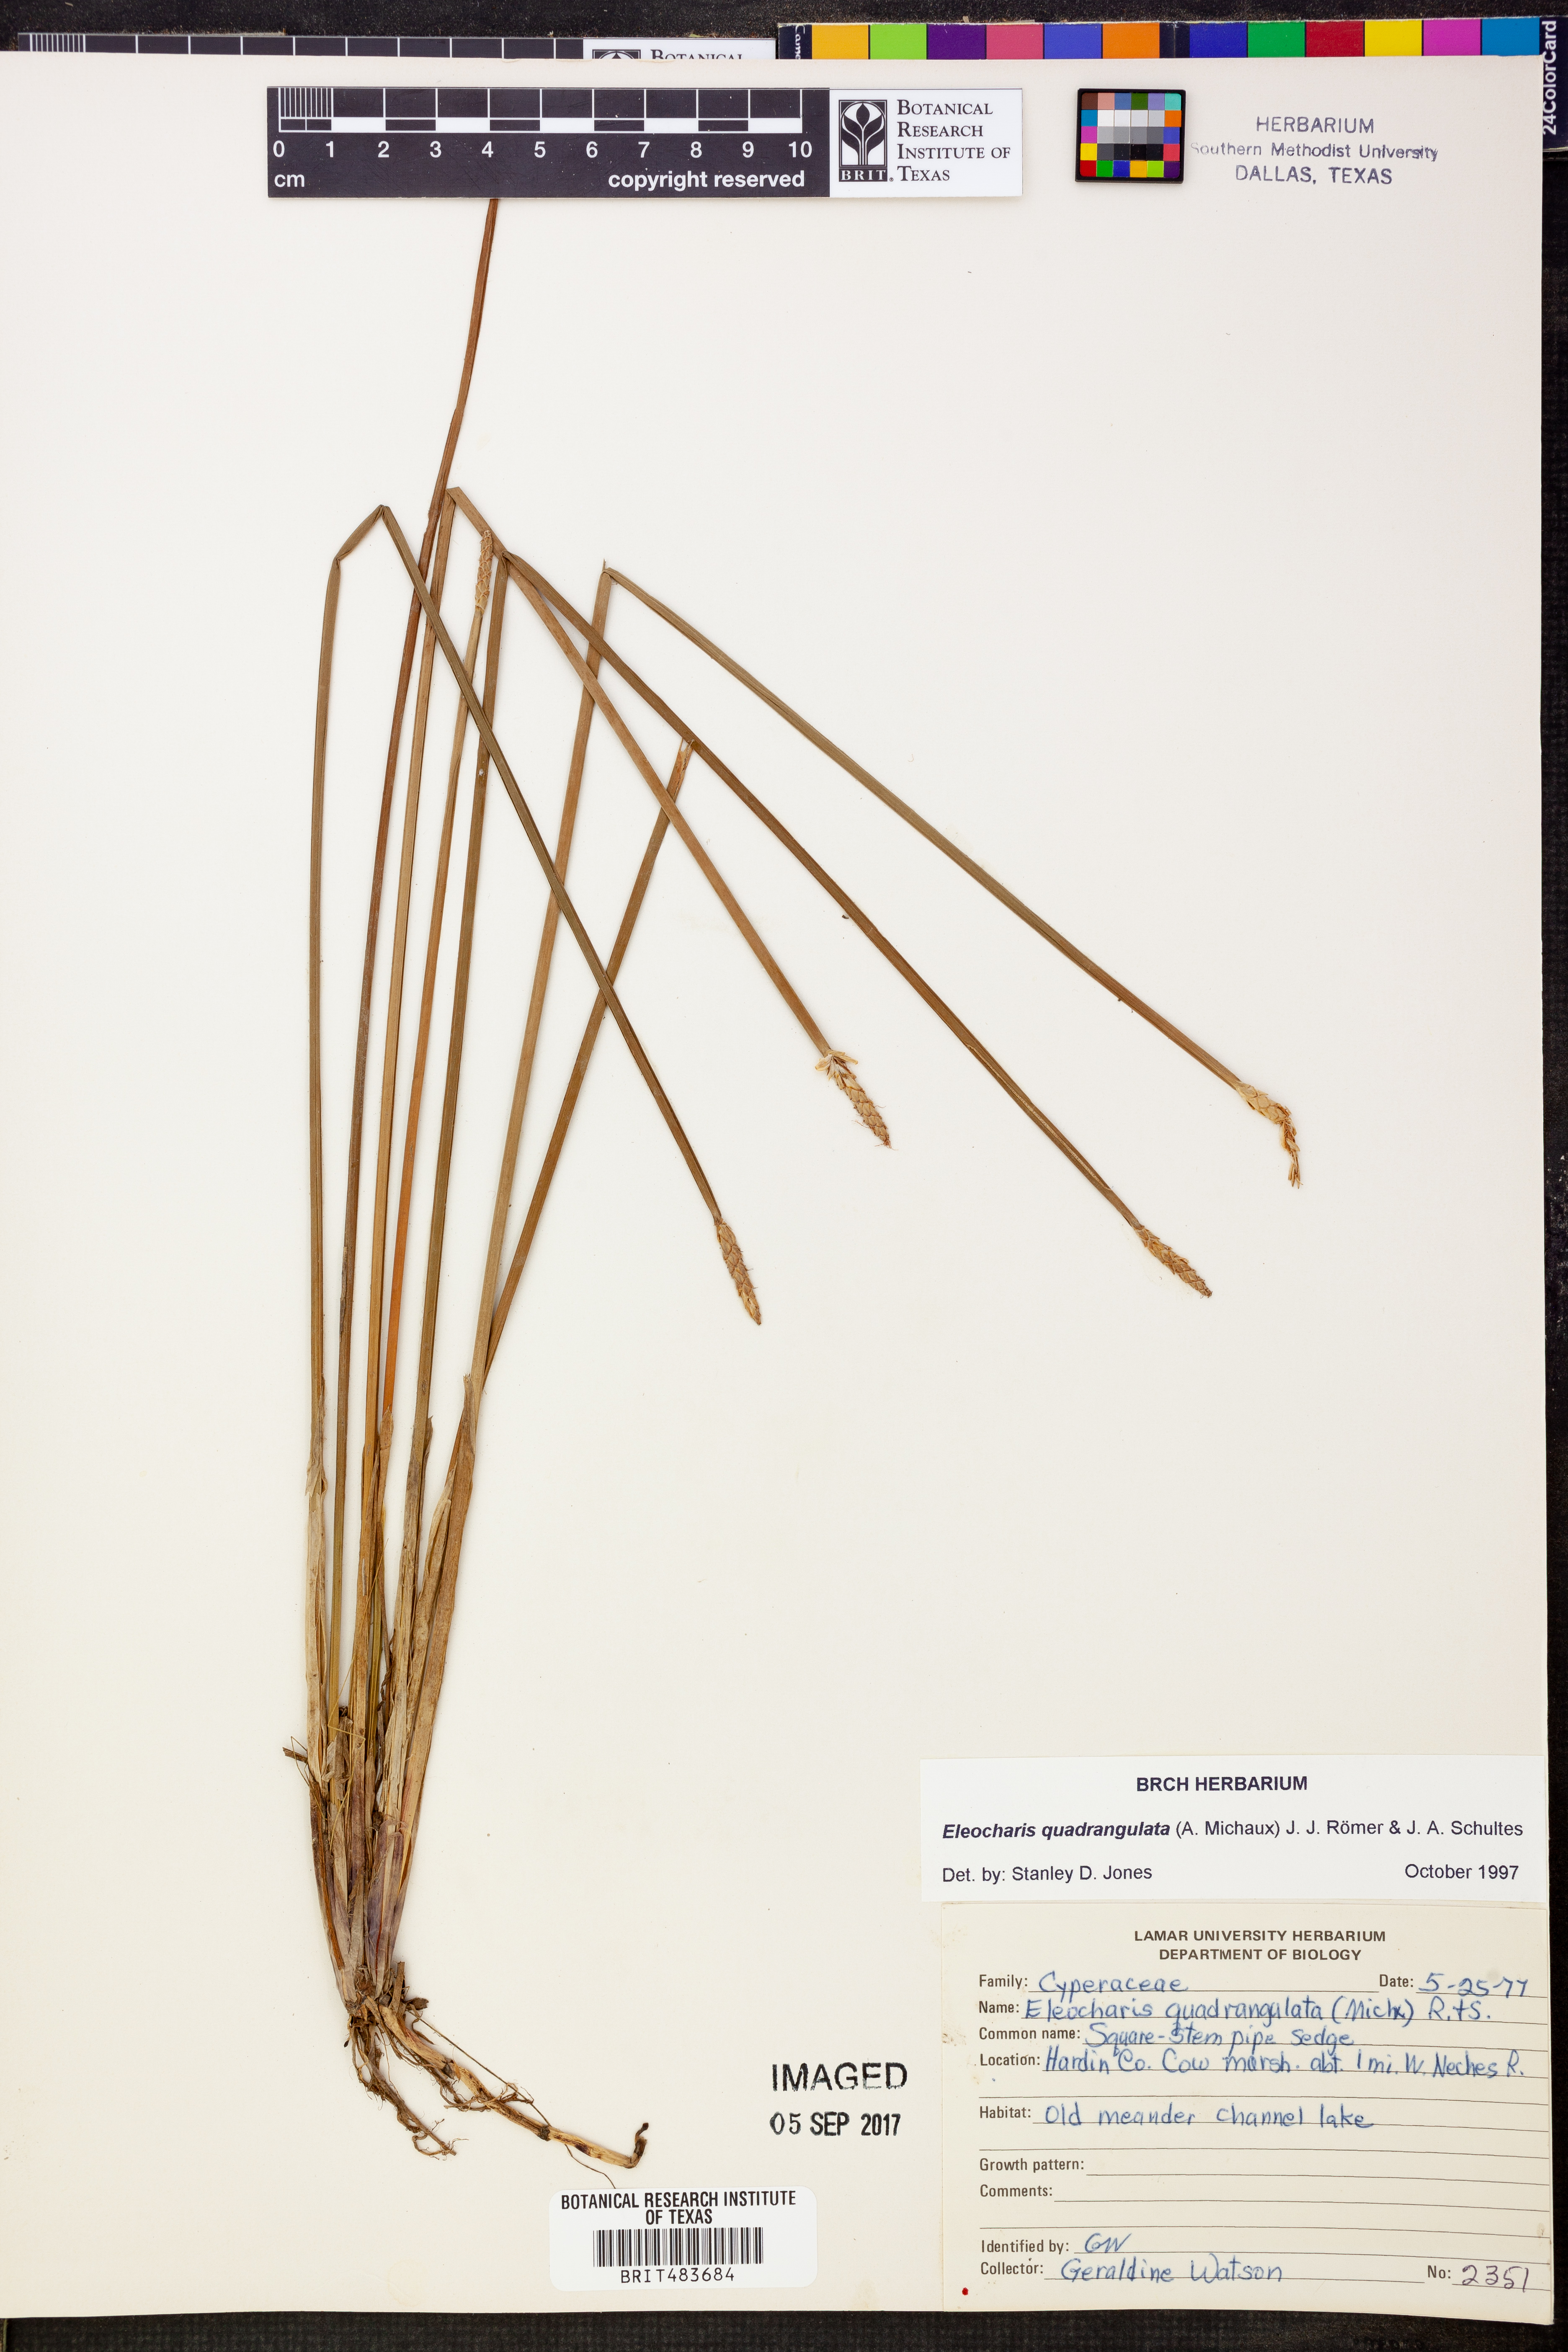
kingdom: Plantae
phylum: Tracheophyta
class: Liliopsida
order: Poales
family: Cyperaceae
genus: Eleocharis
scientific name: Eleocharis quadrangulata
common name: Square-stem spike-rush
